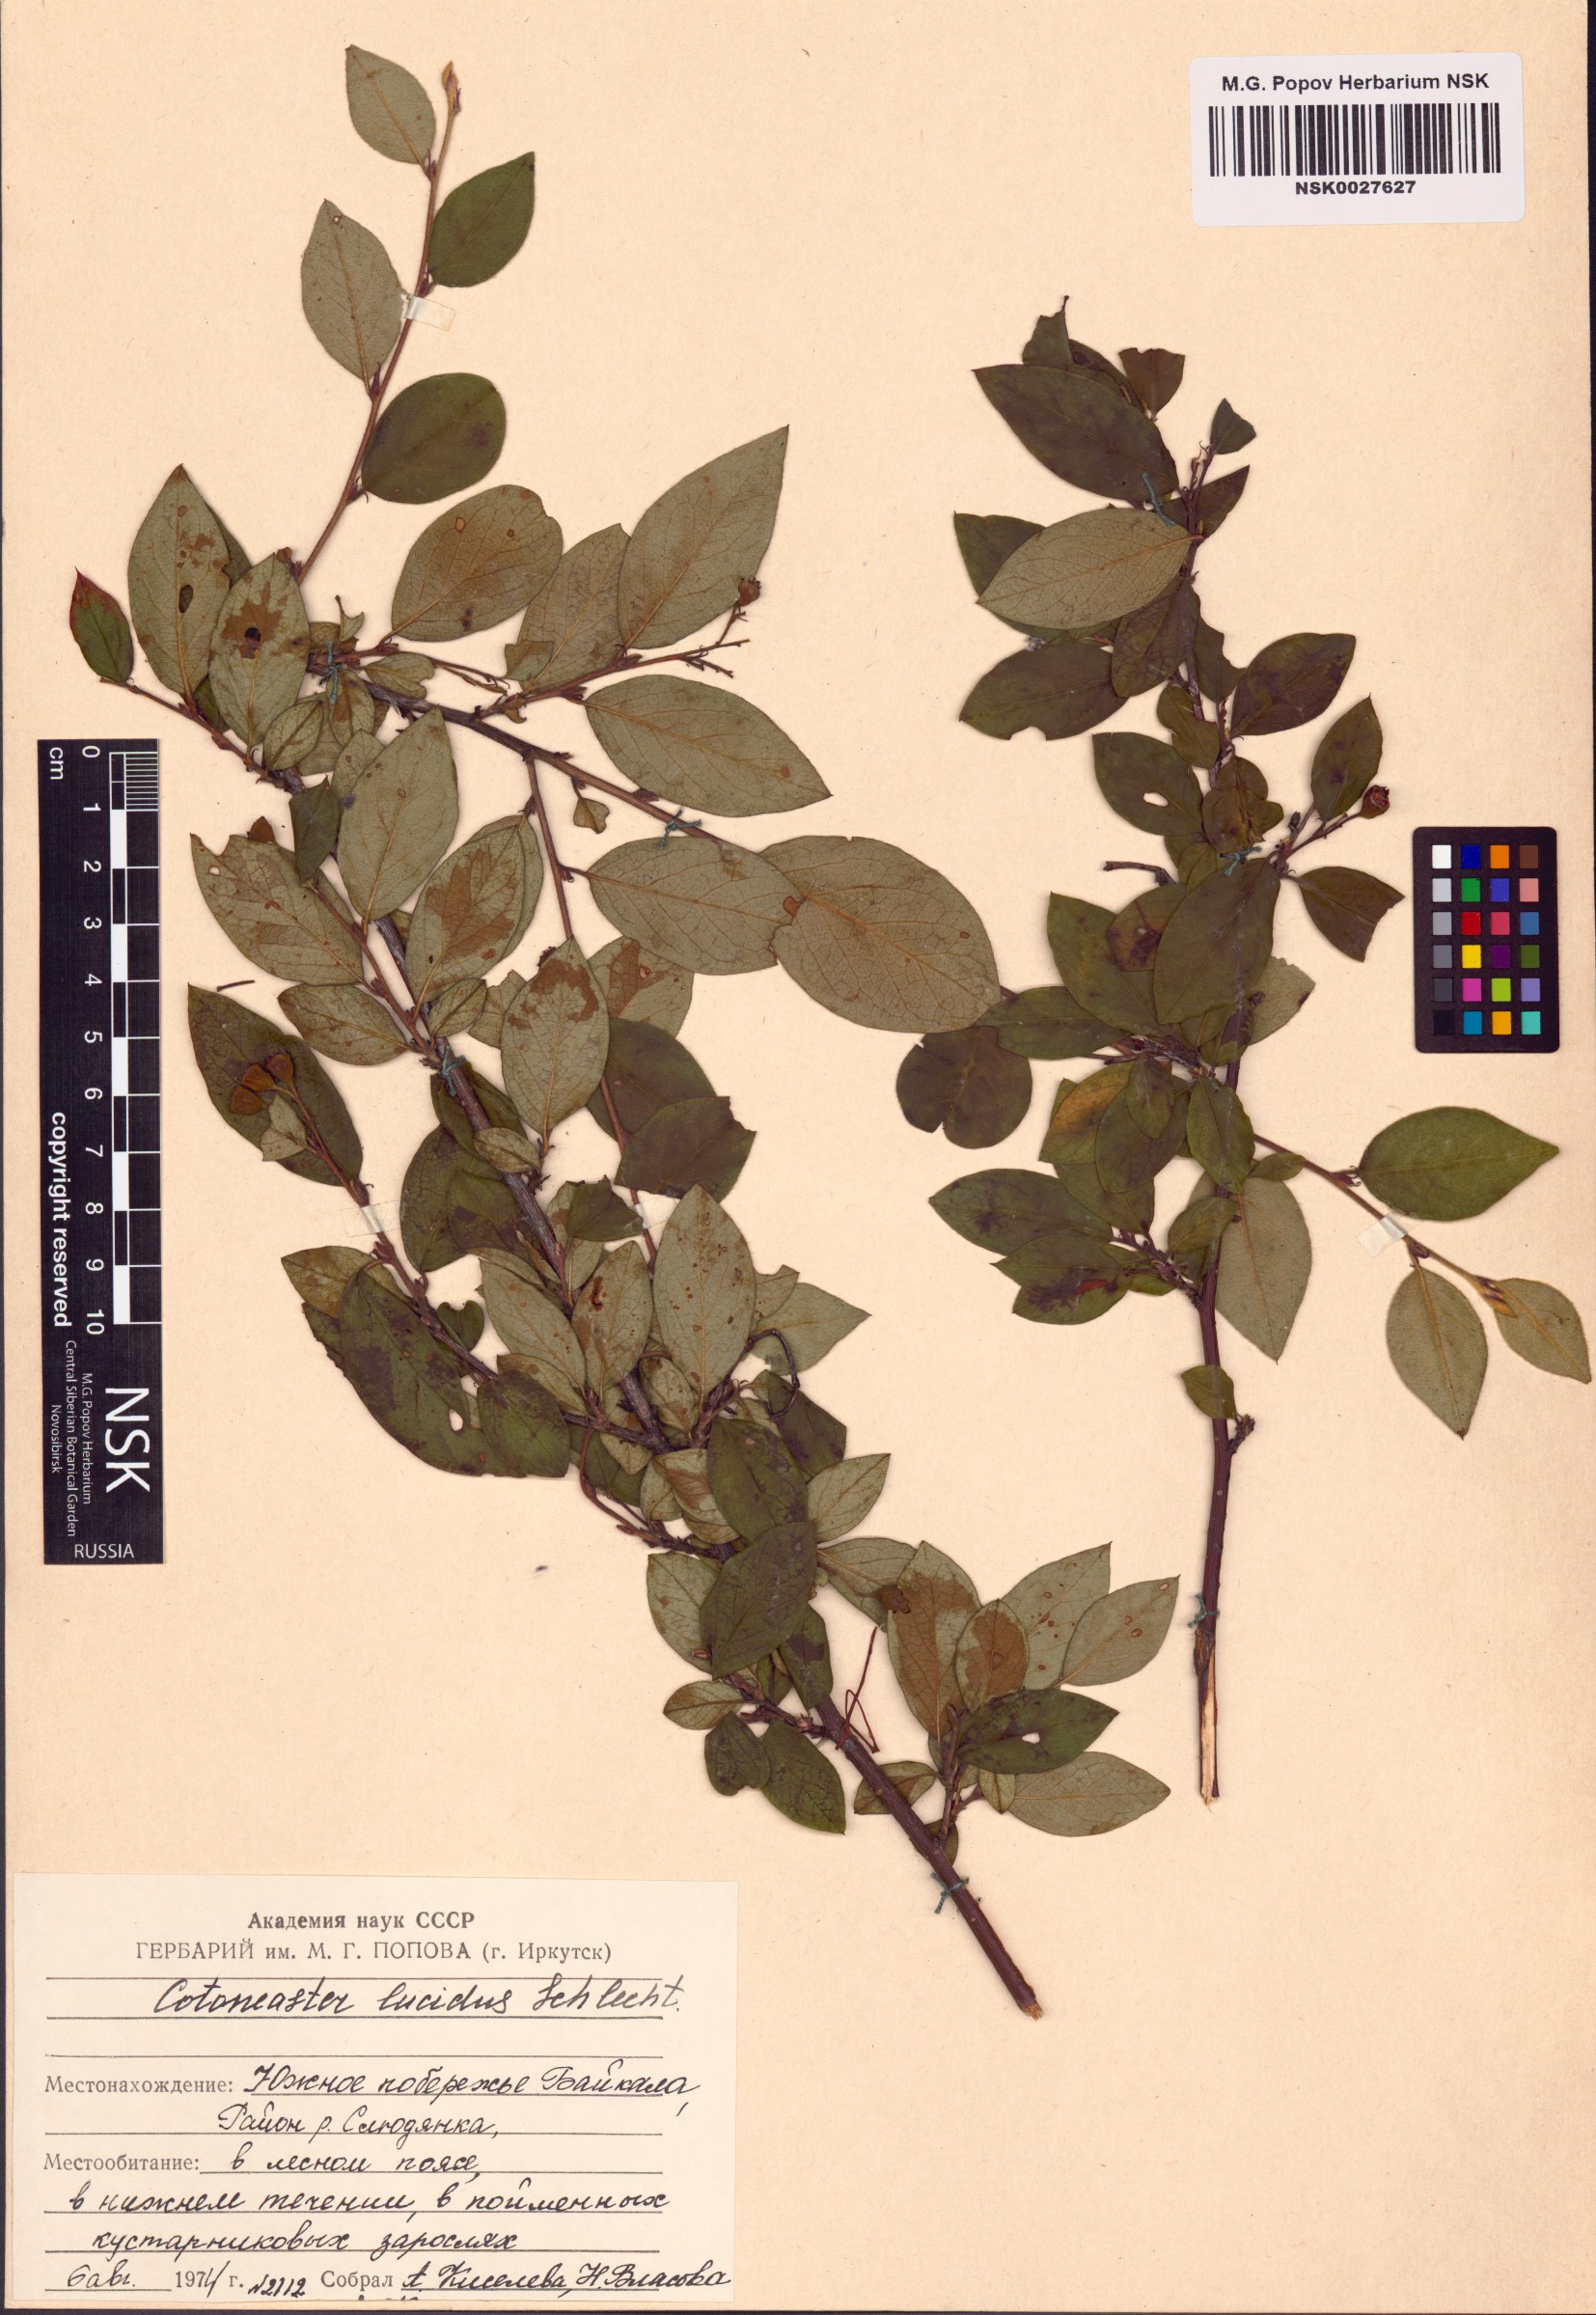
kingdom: Plantae
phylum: Tracheophyta
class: Magnoliopsida
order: Rosales
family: Rosaceae
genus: Cotoneaster
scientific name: Cotoneaster acutifolius
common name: Peking cotoneaster
